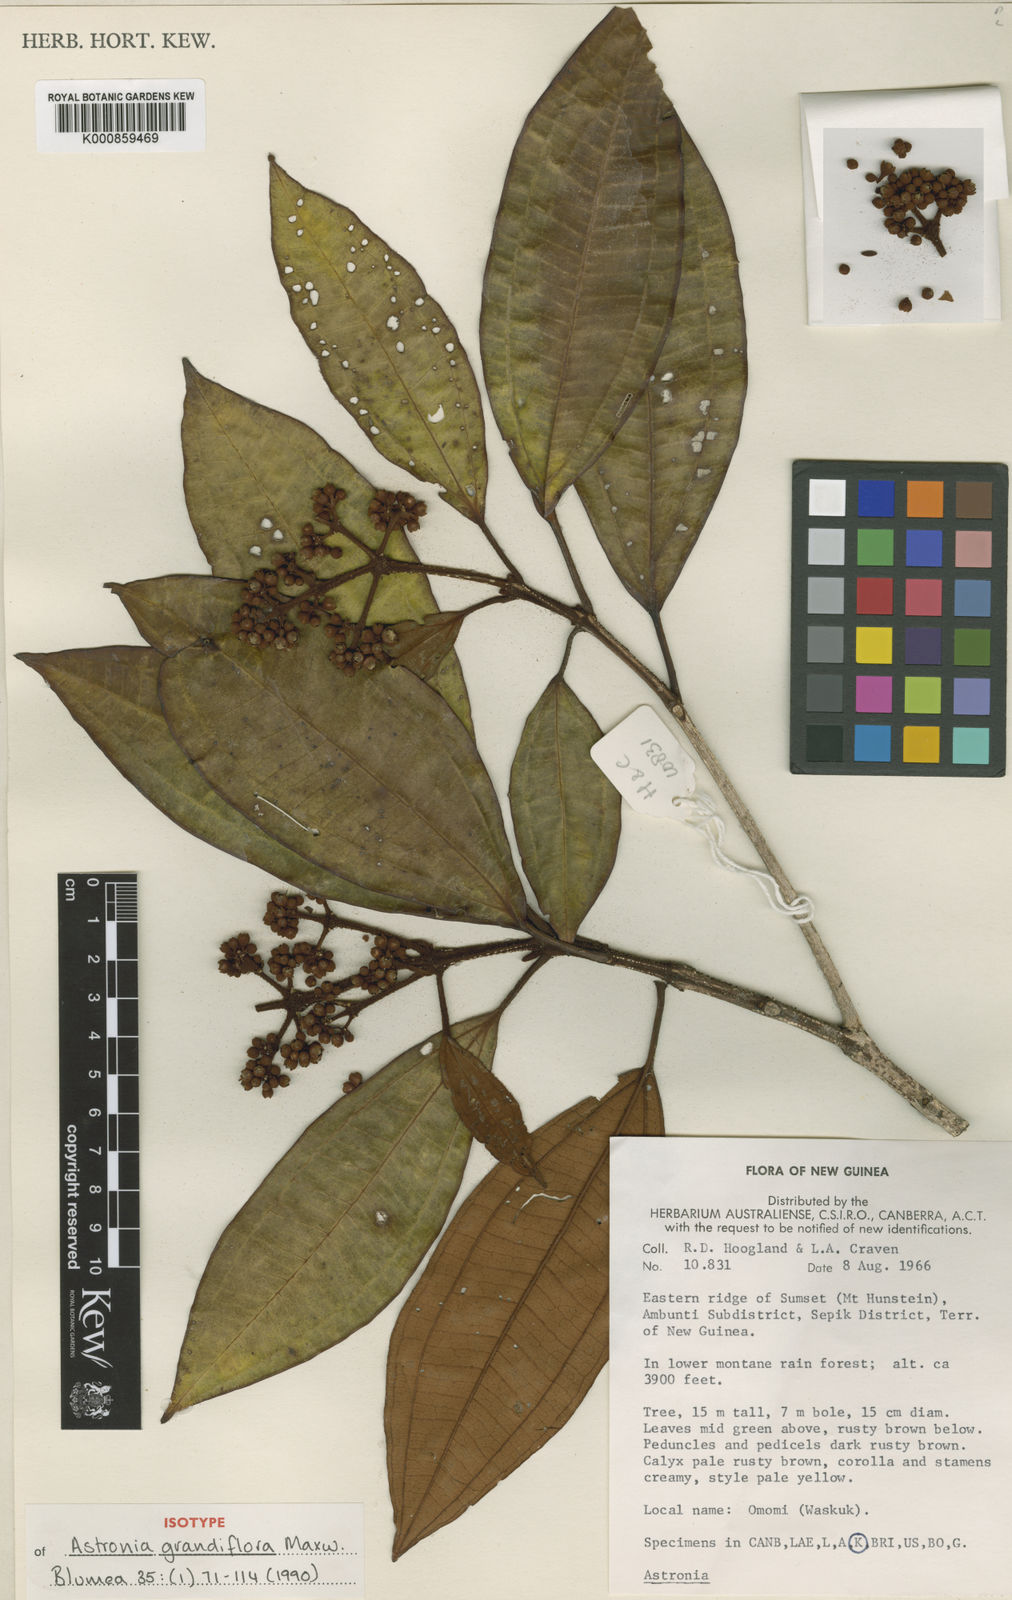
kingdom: Plantae
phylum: Tracheophyta
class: Magnoliopsida
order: Myrtales
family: Melastomataceae
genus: Astronia
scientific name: Astronia grandiflora
